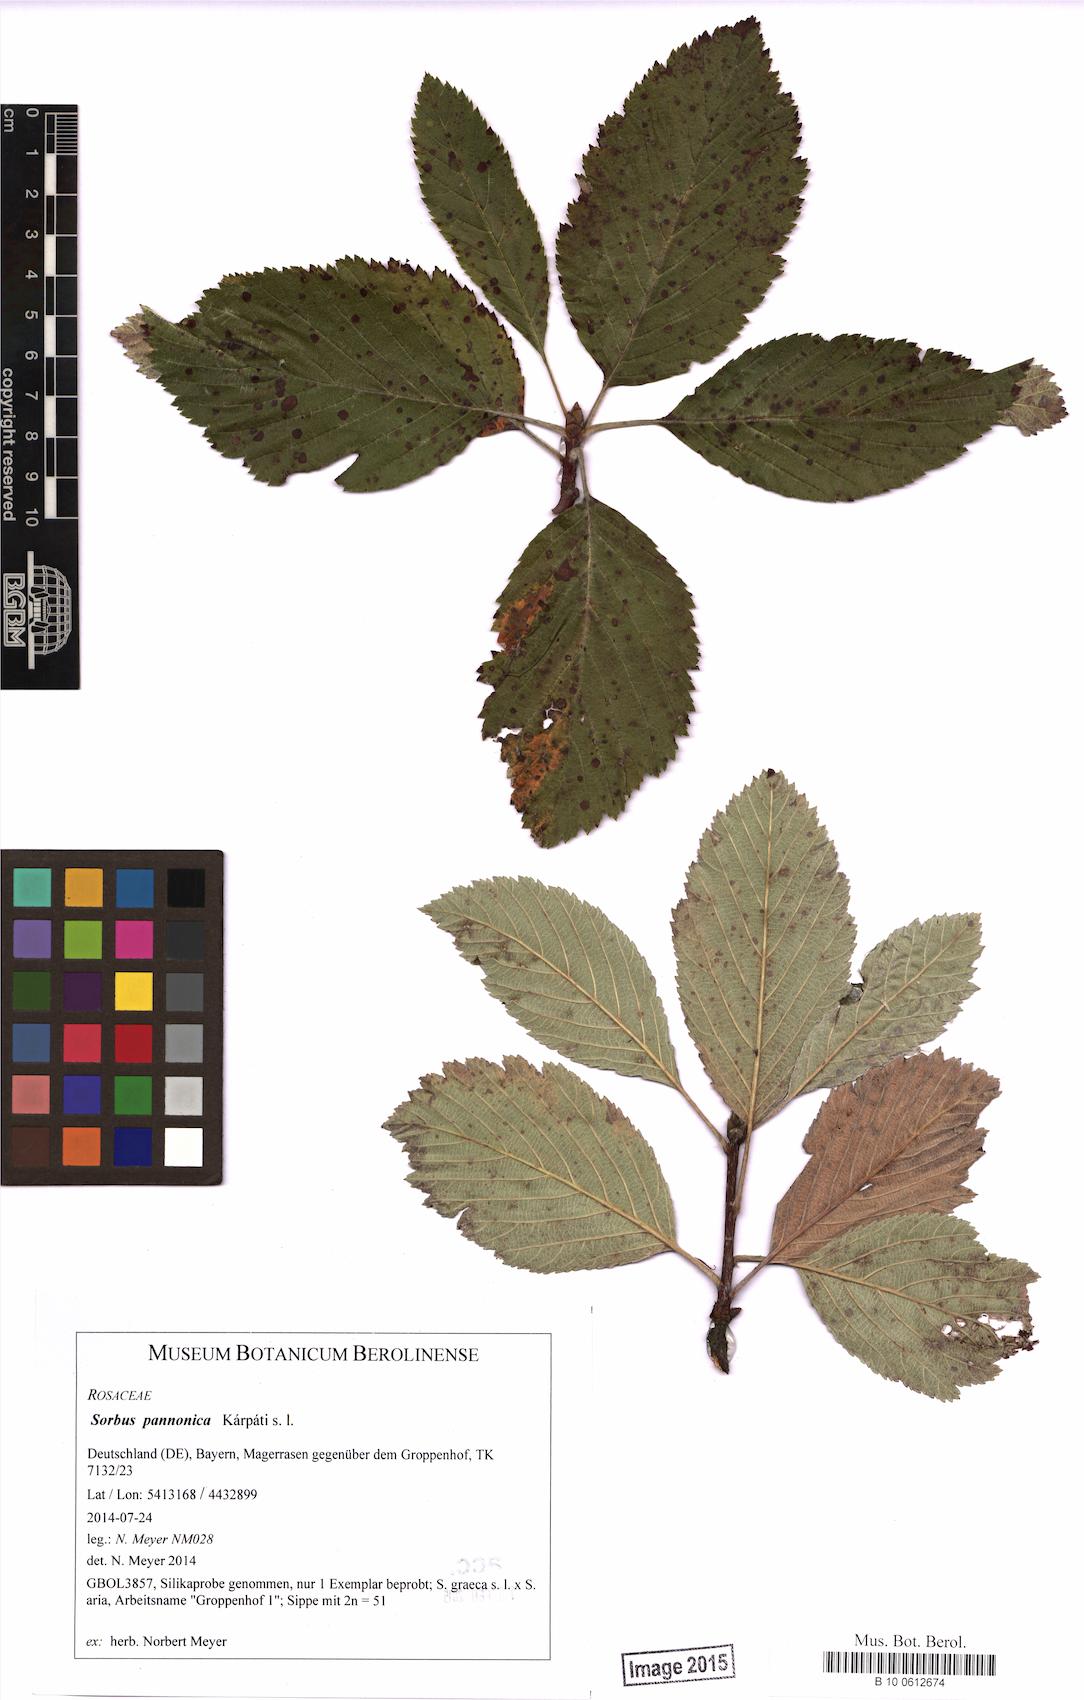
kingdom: Plantae
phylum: Tracheophyta
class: Magnoliopsida
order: Rosales
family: Rosaceae
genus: Aria
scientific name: Aria pannonica
